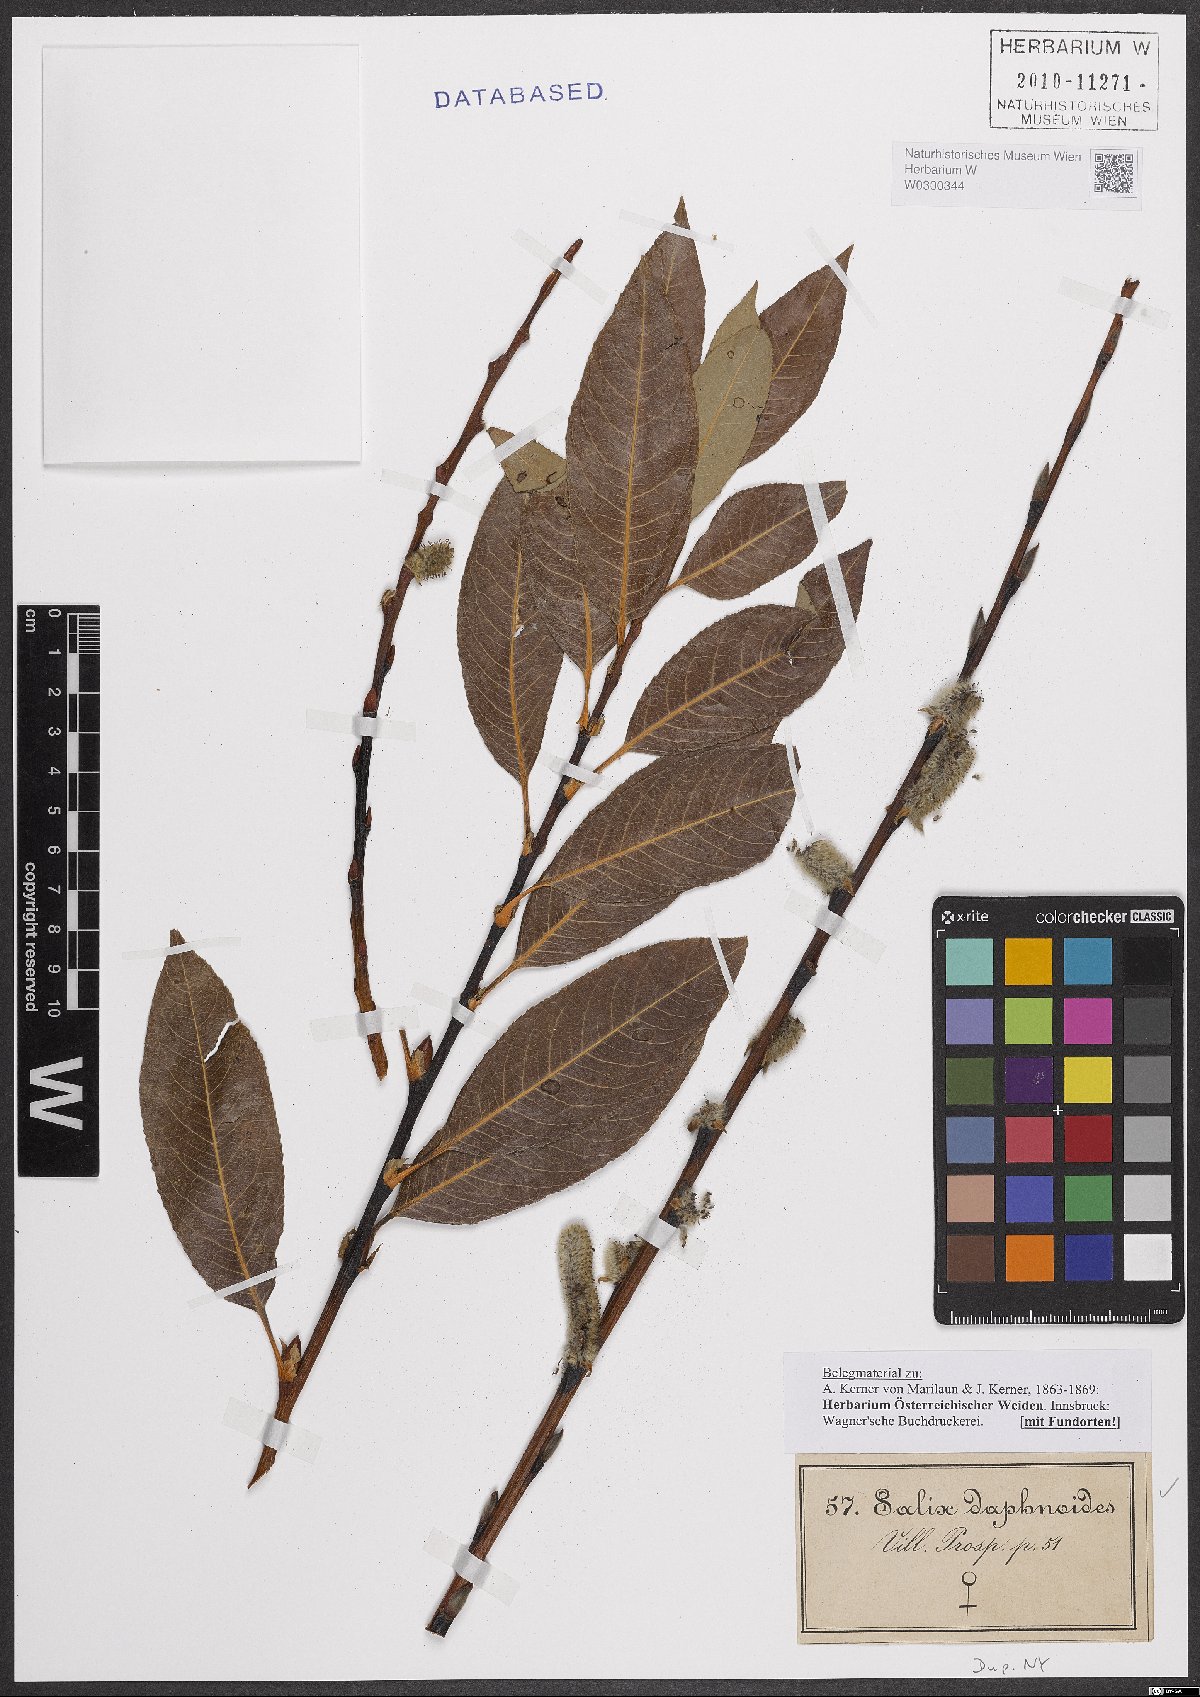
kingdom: Plantae
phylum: Tracheophyta
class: Magnoliopsida
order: Malpighiales
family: Salicaceae
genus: Salix
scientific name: Salix daphnoides
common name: European violet-willow
